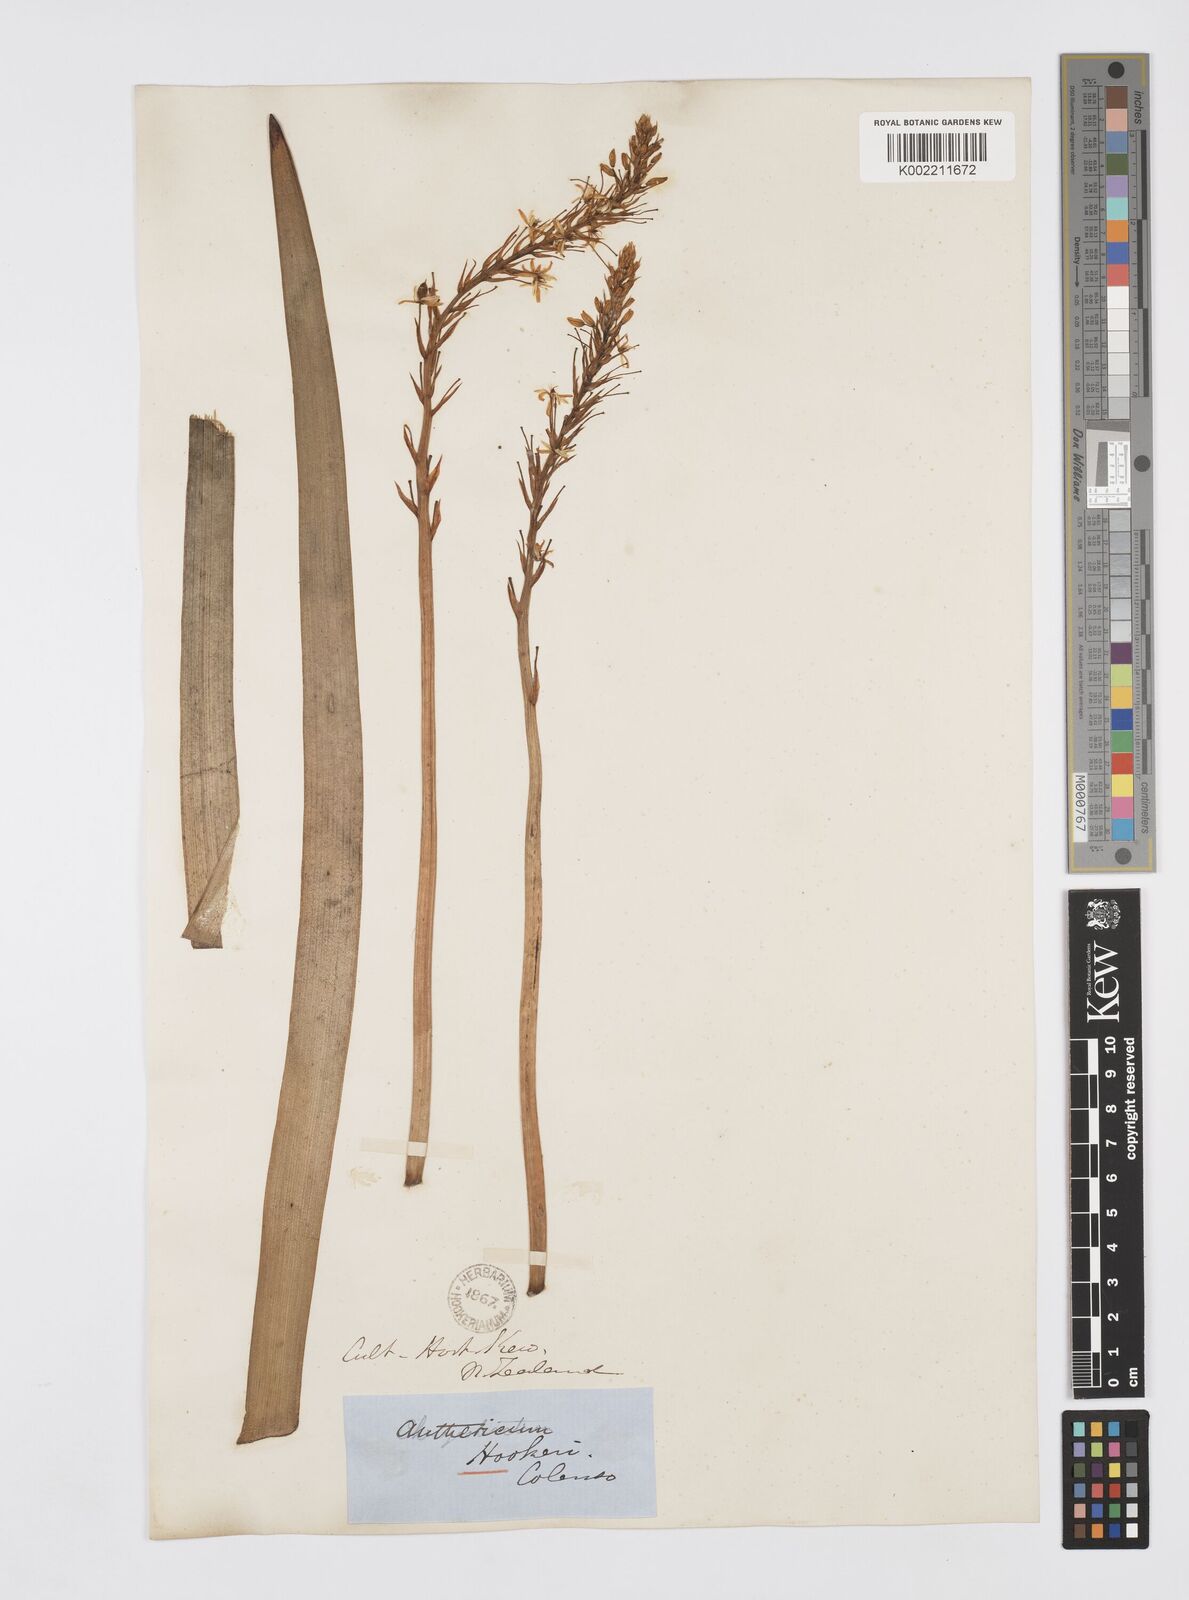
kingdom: Plantae
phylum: Tracheophyta
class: Liliopsida
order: Asparagales
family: Asphodelaceae
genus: Bulbinella
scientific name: Bulbinella hookeri
